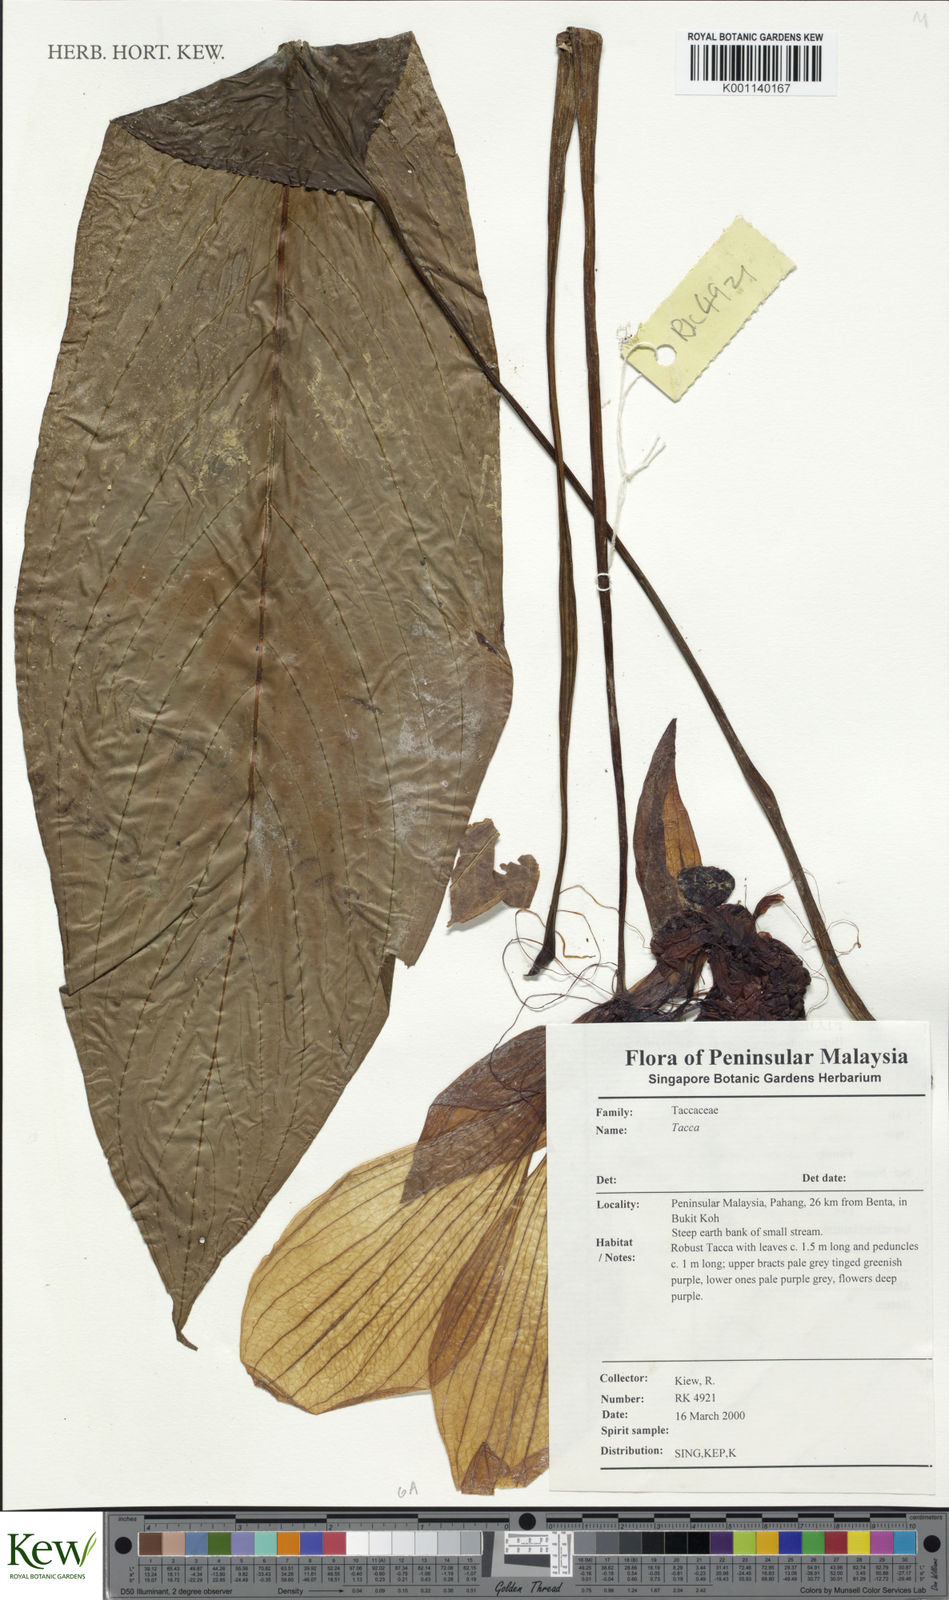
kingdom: Plantae
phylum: Tracheophyta
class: Liliopsida
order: Dioscoreales
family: Dioscoreaceae
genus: Tacca
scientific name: Tacca
